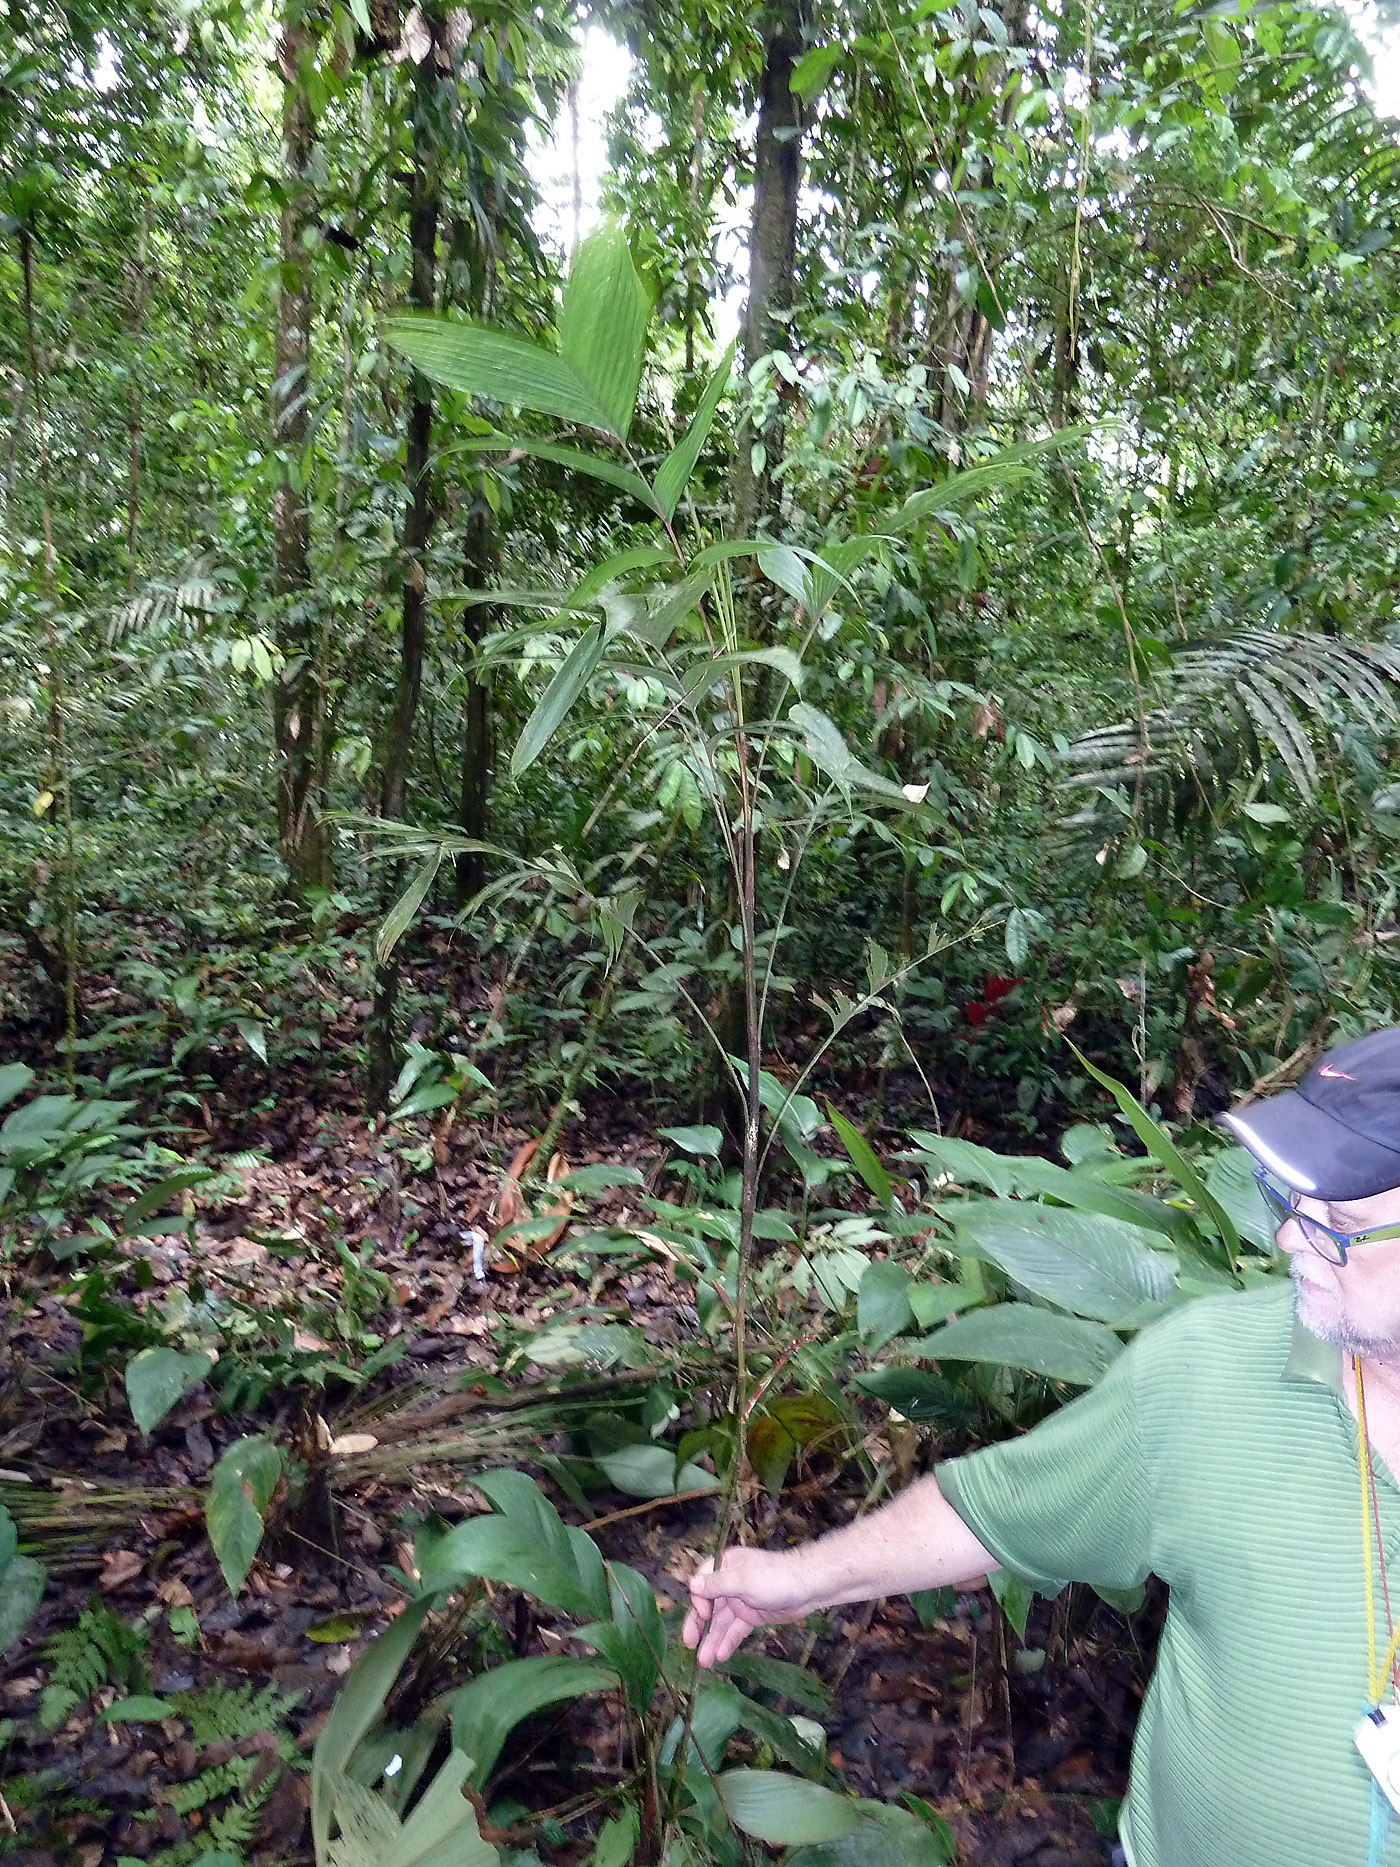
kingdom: Plantae
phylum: Tracheophyta
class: Liliopsida
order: Arecales
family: Arecaceae
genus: Geonoma
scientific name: Geonoma stricta
